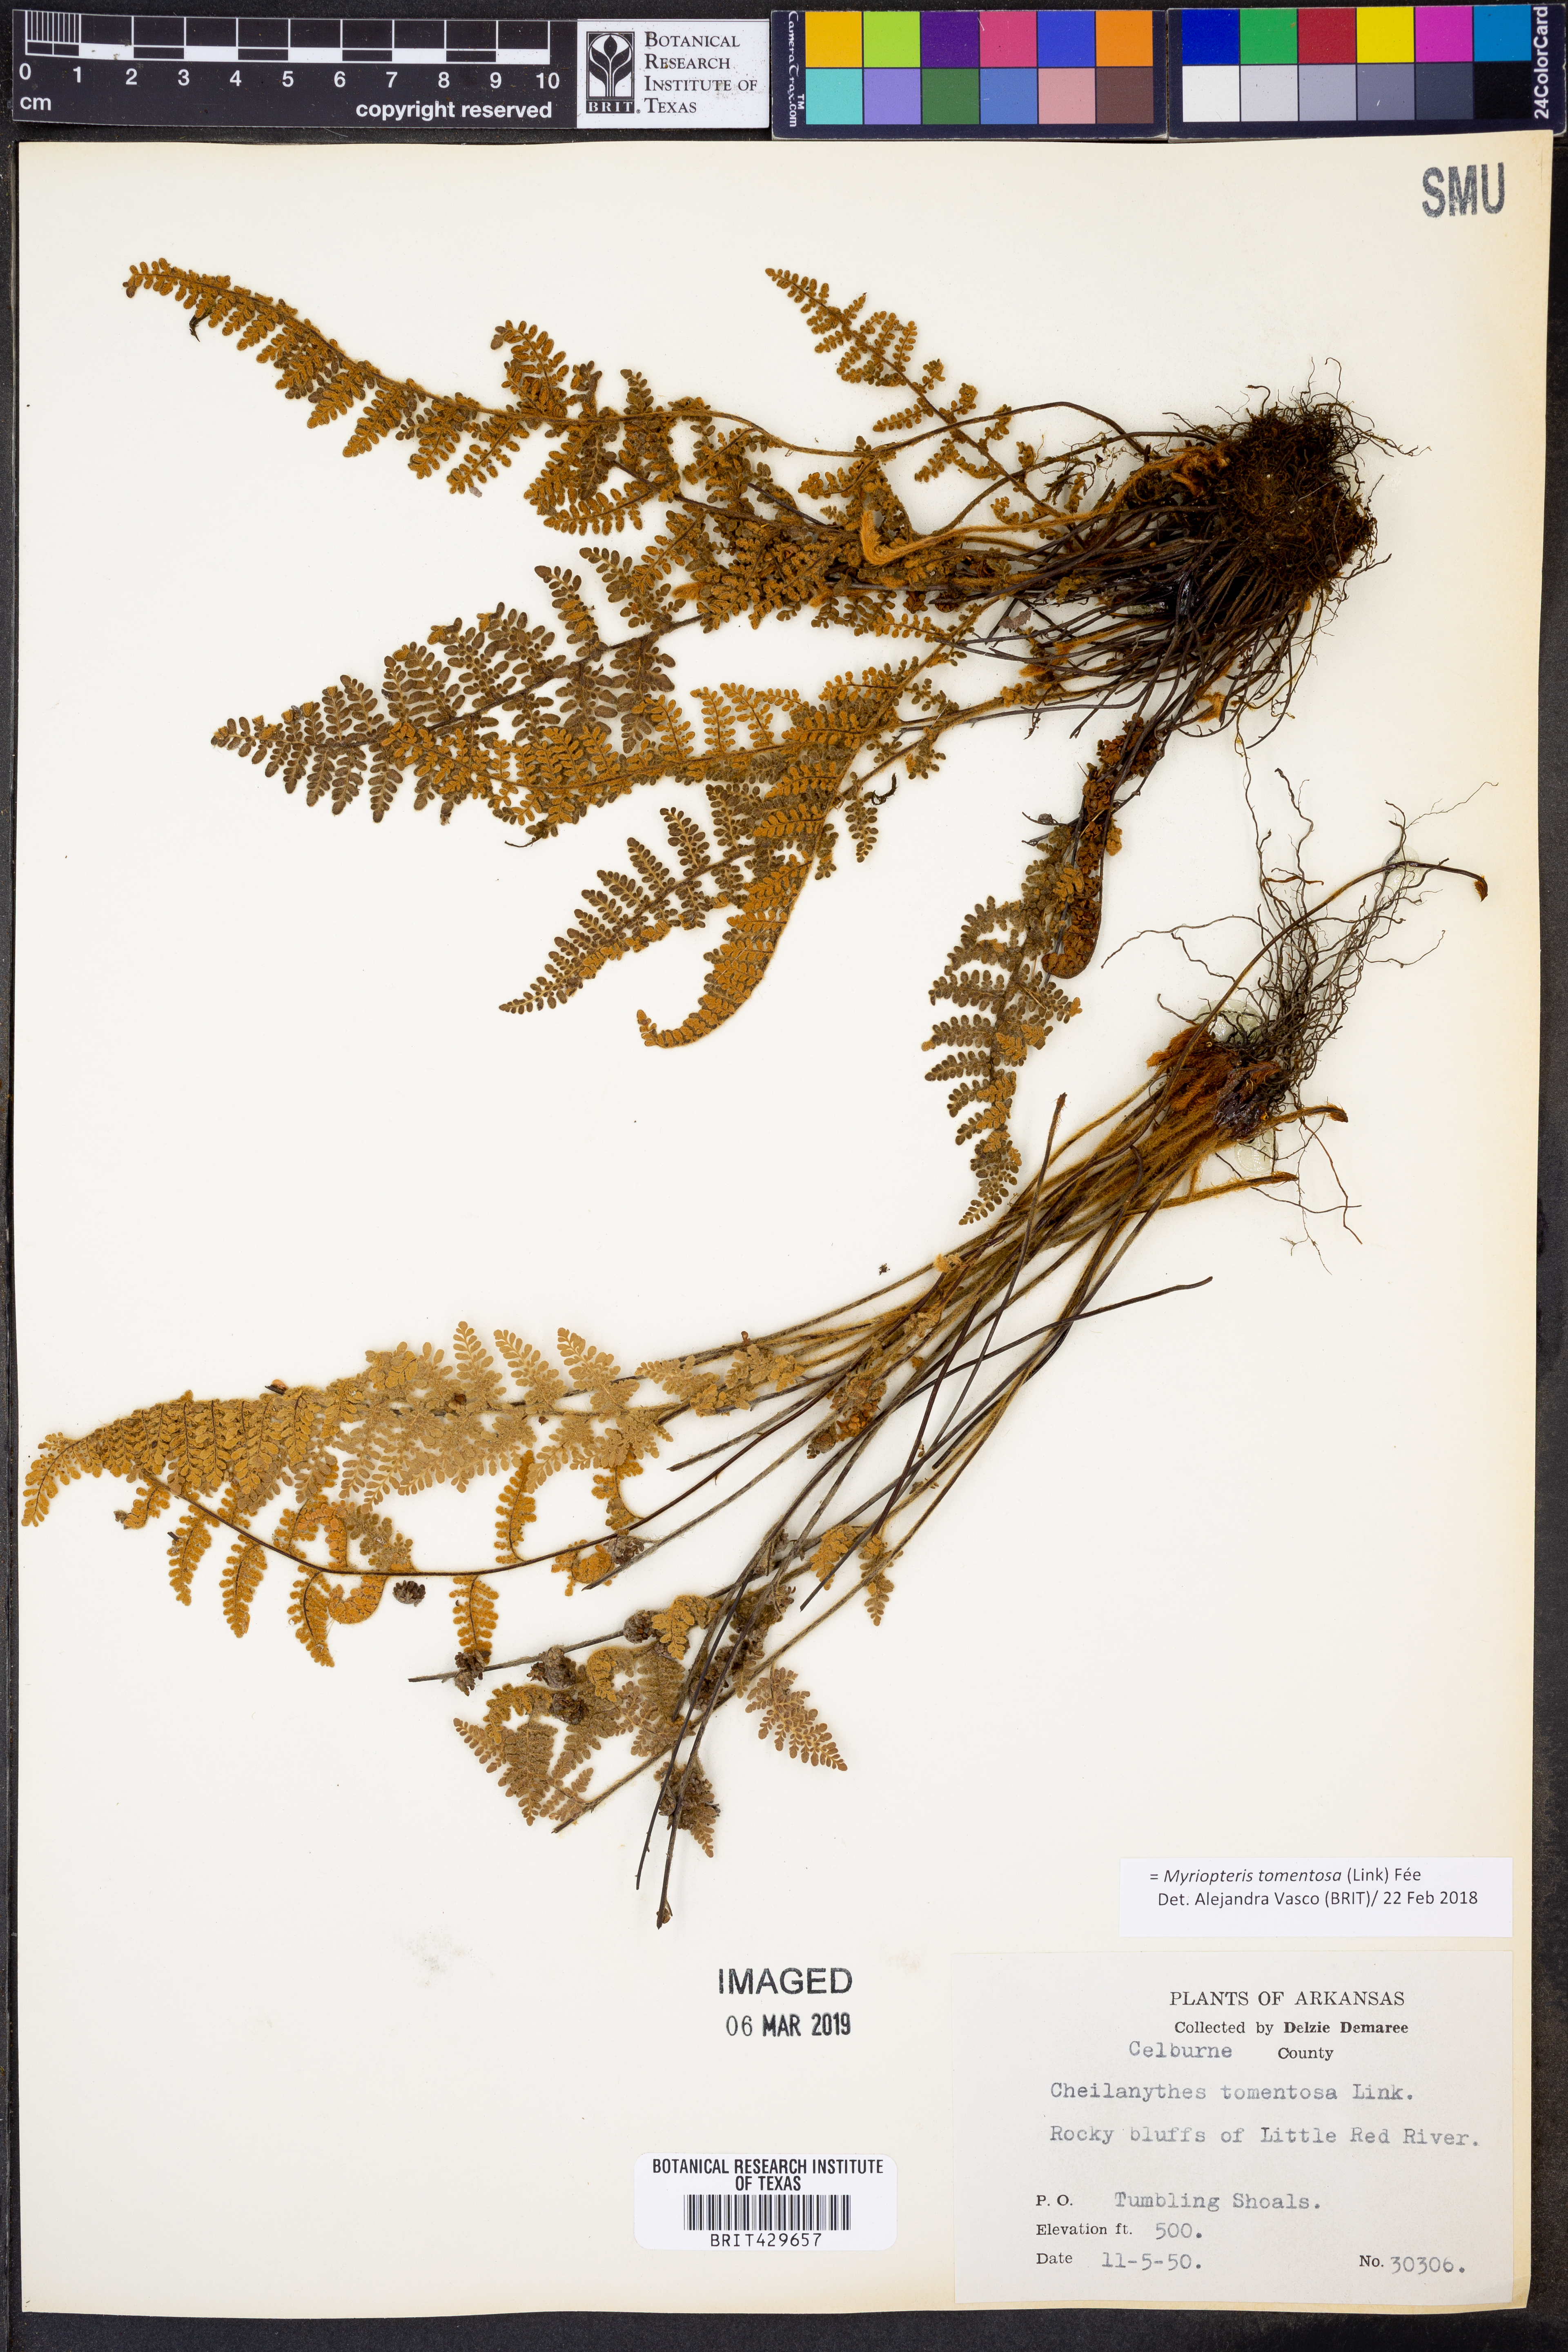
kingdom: Plantae
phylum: Tracheophyta
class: Polypodiopsida
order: Polypodiales
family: Pteridaceae
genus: Myriopteris
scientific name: Myriopteris tomentosa
